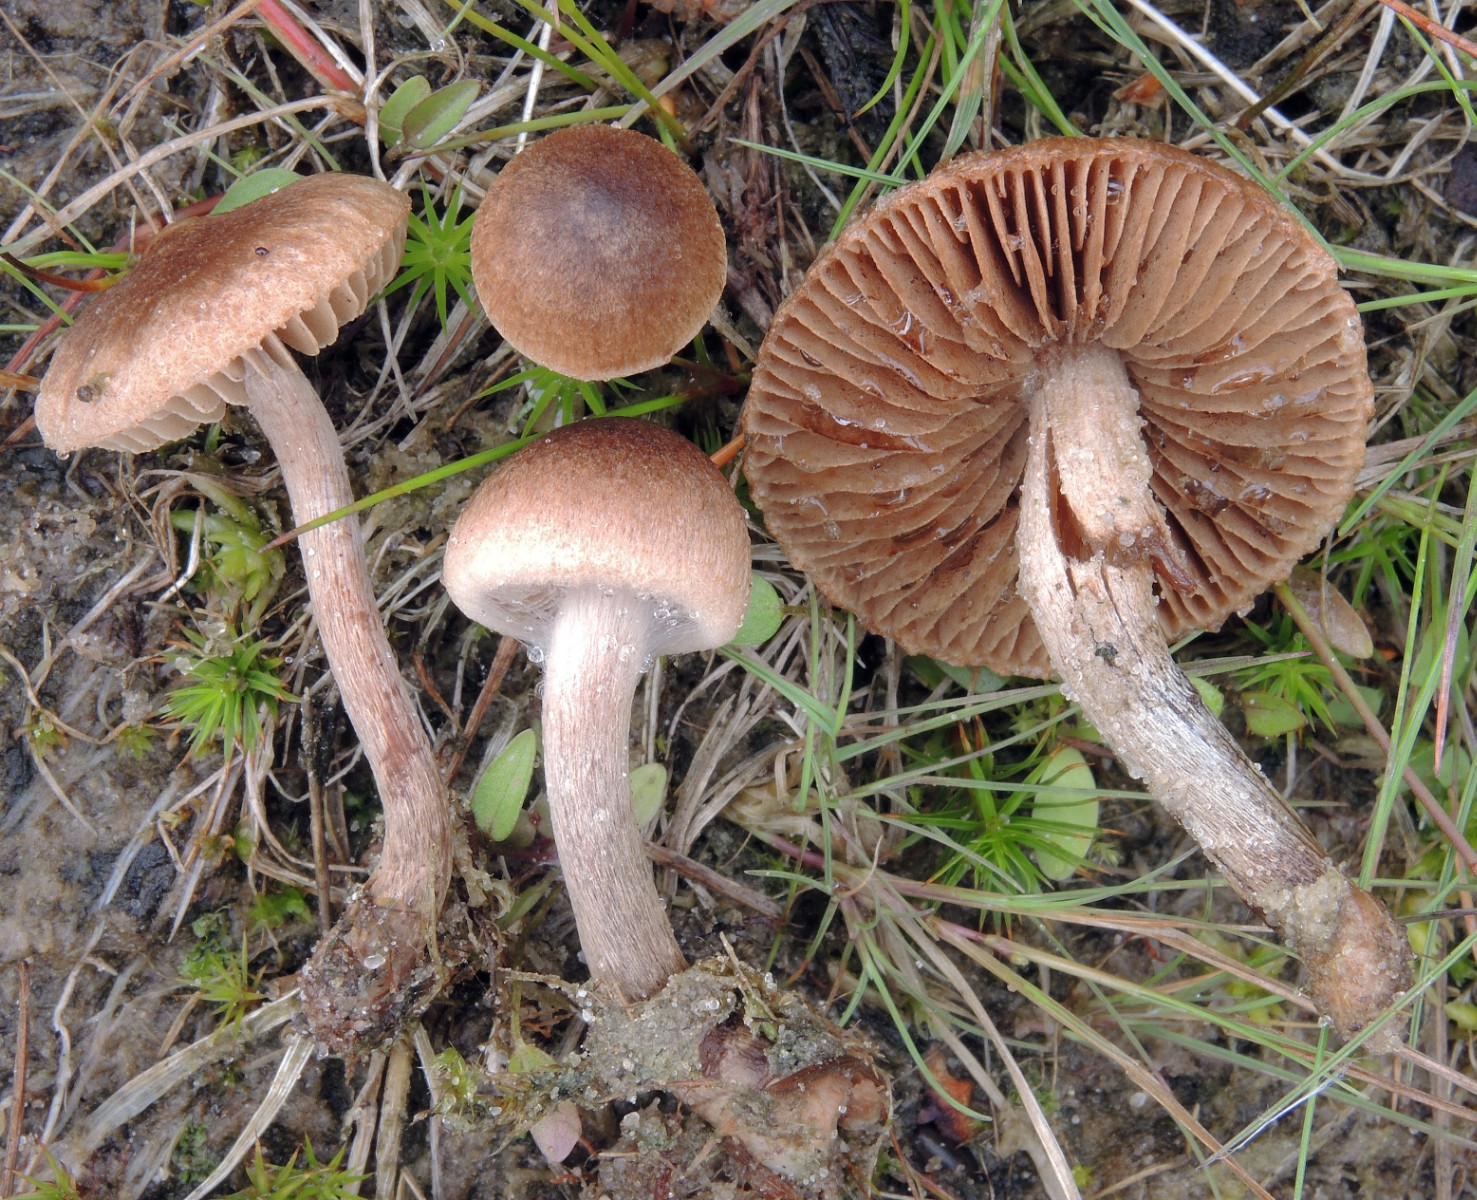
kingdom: Fungi
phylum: Basidiomycota
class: Agaricomycetes
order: Agaricales
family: Inocybaceae
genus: Inocybe
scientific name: Inocybe lacera
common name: laset trævlhat
